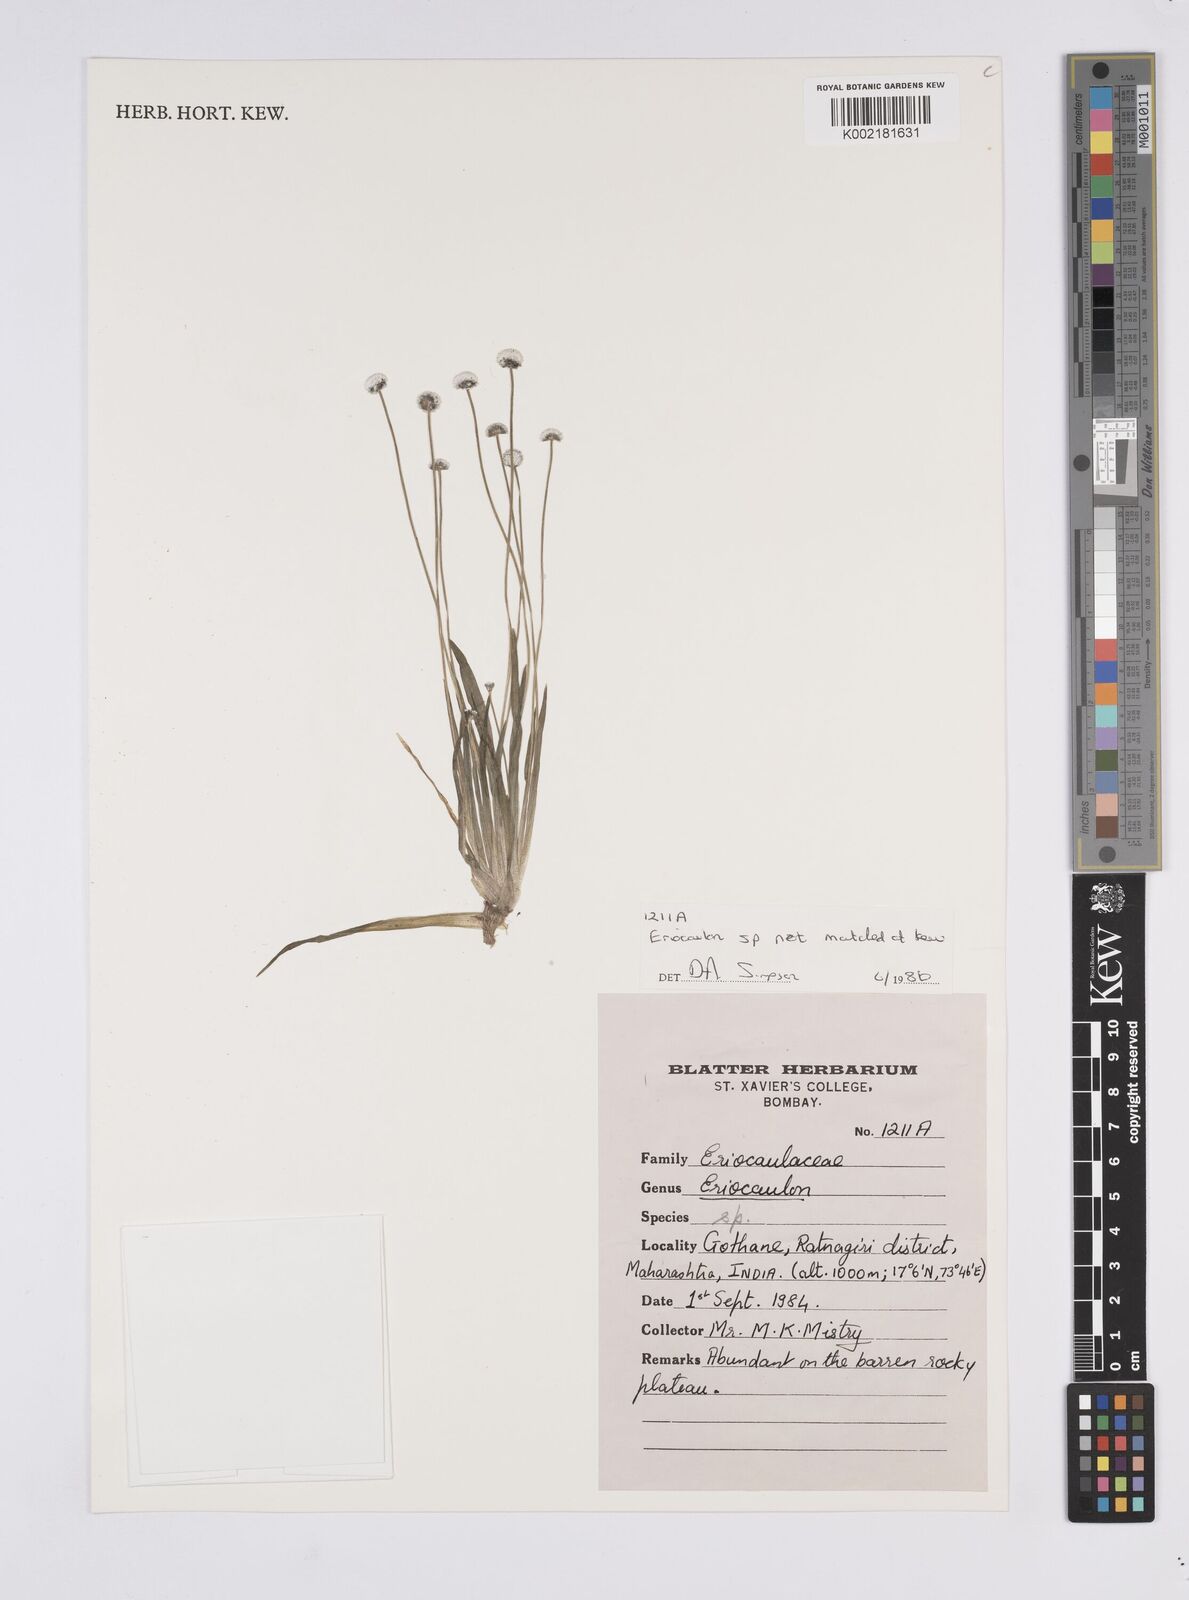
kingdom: Plantae
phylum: Tracheophyta
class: Liliopsida
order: Poales
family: Eriocaulaceae
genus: Eriocaulon
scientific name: Eriocaulon sedgwickii
